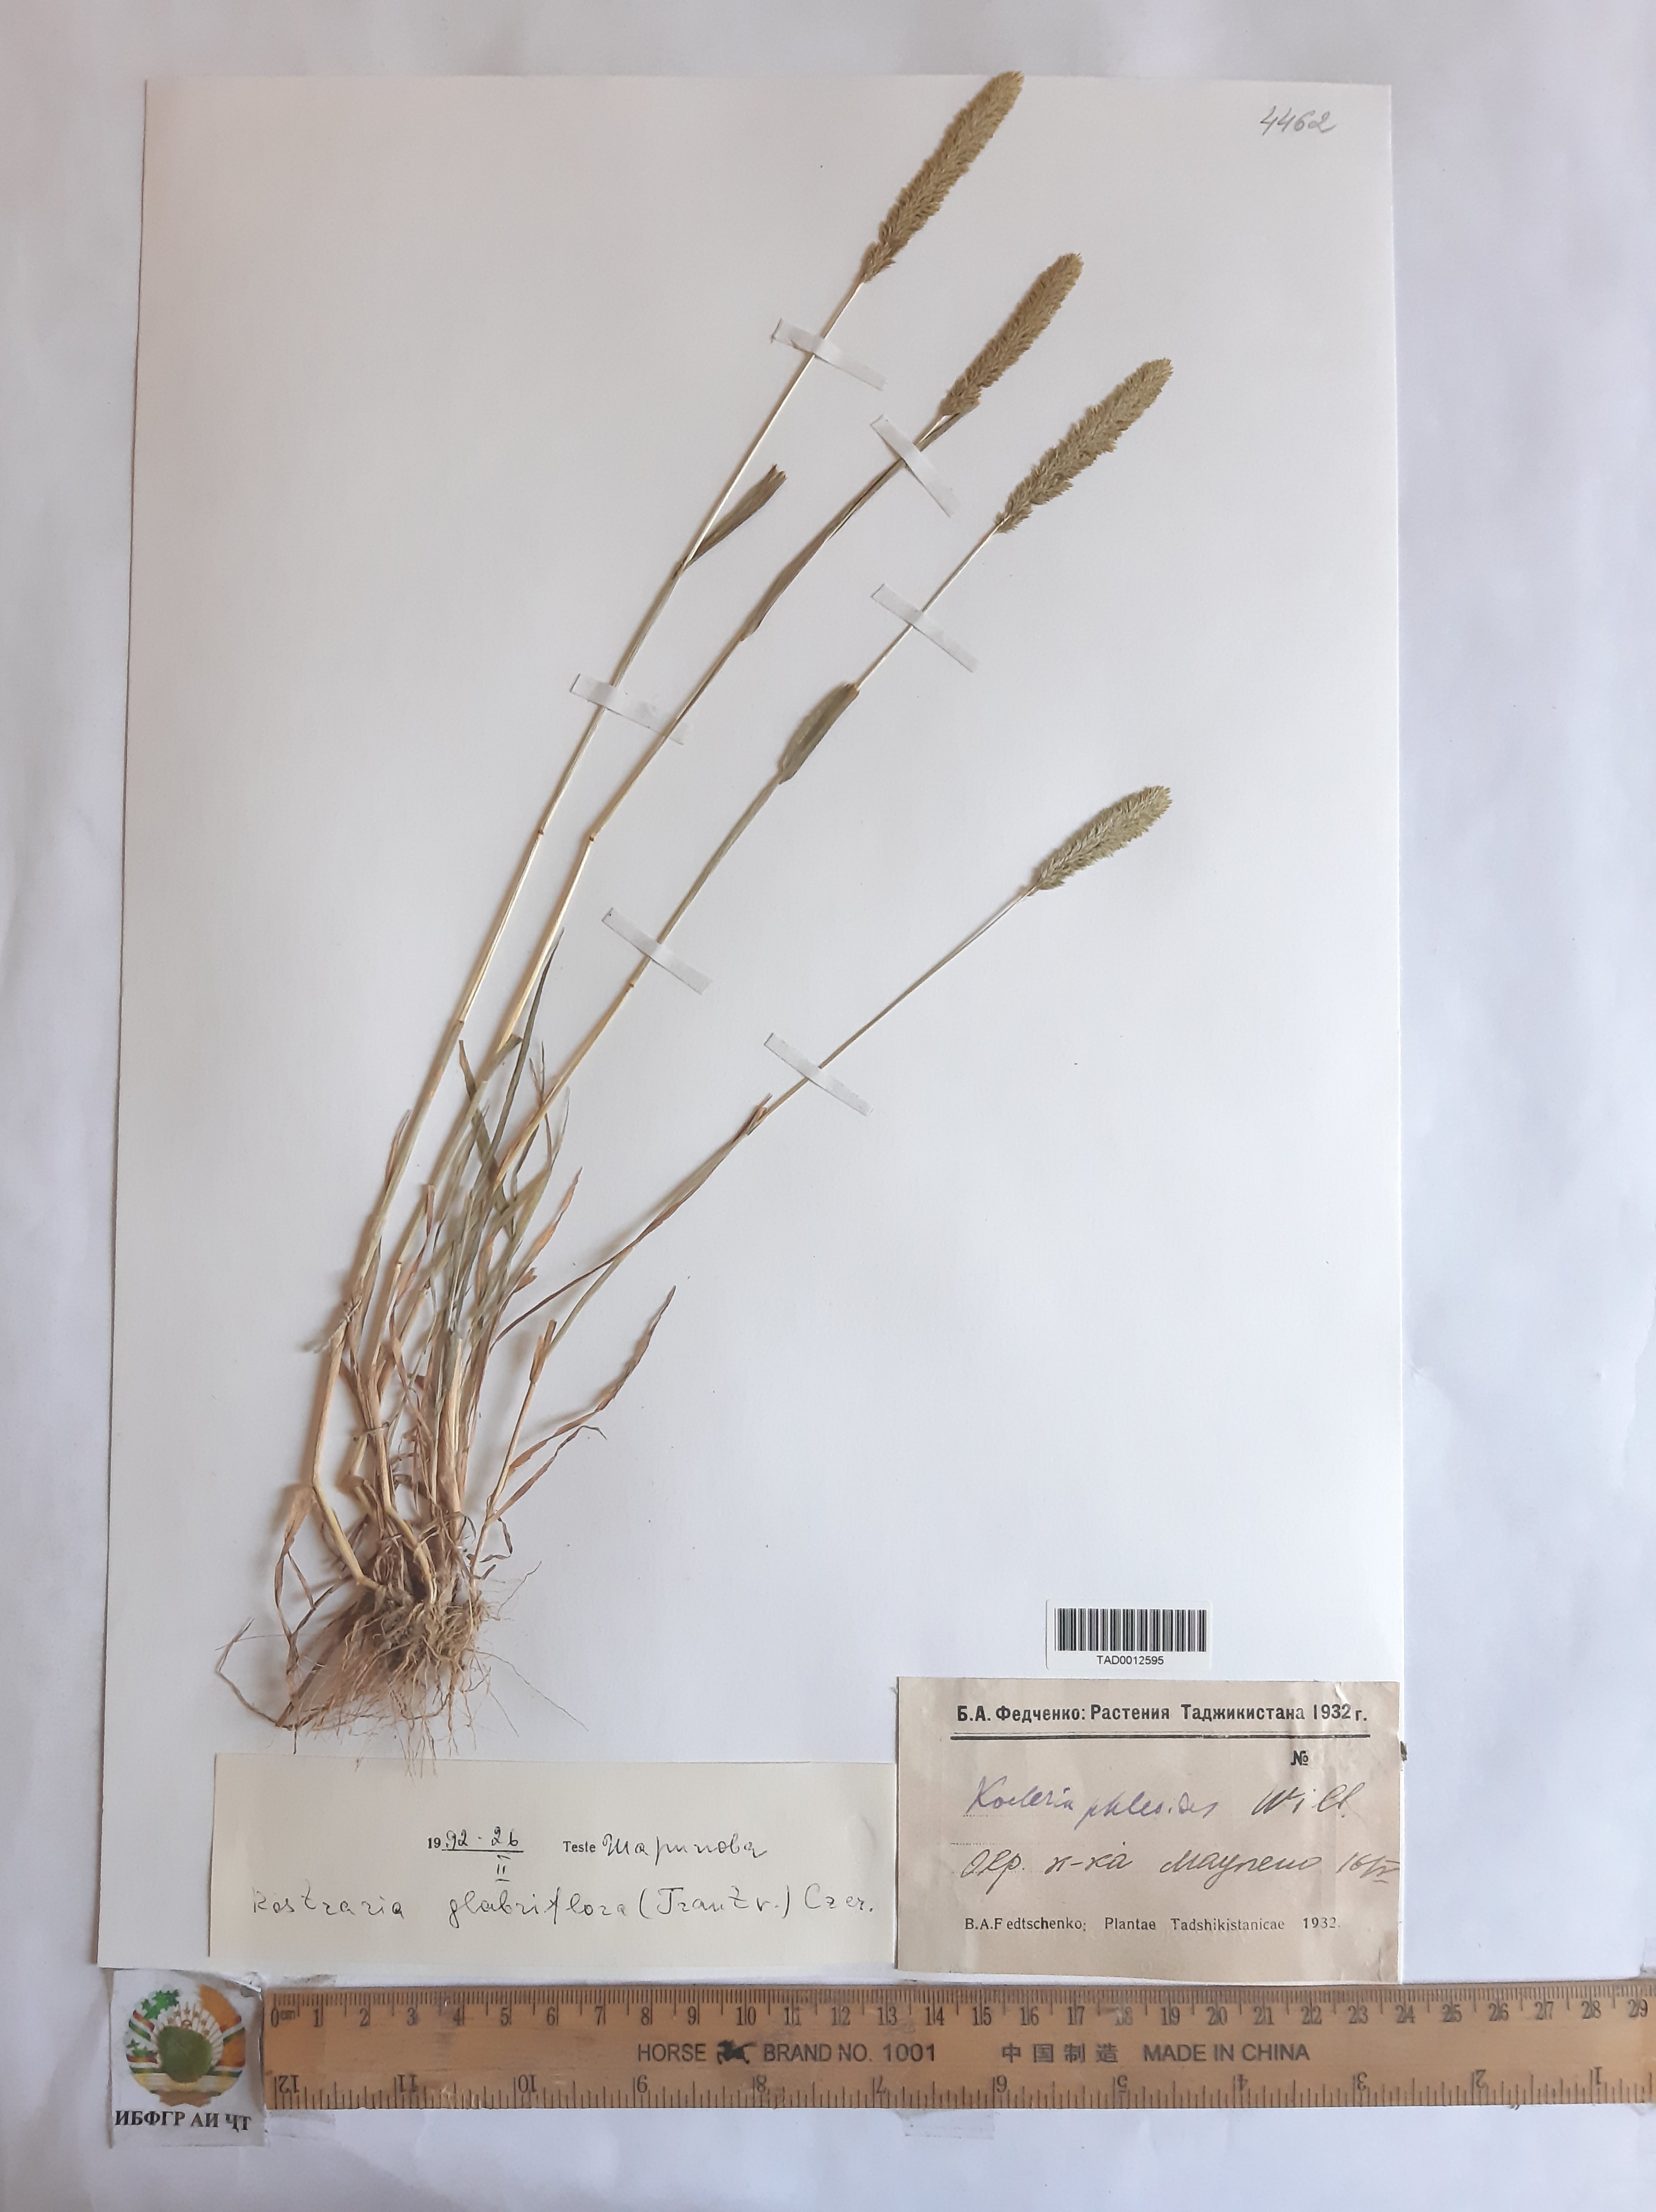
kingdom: Plantae
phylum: Tracheophyta
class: Liliopsida
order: Poales
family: Poaceae
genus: Rostraria
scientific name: Rostraria
